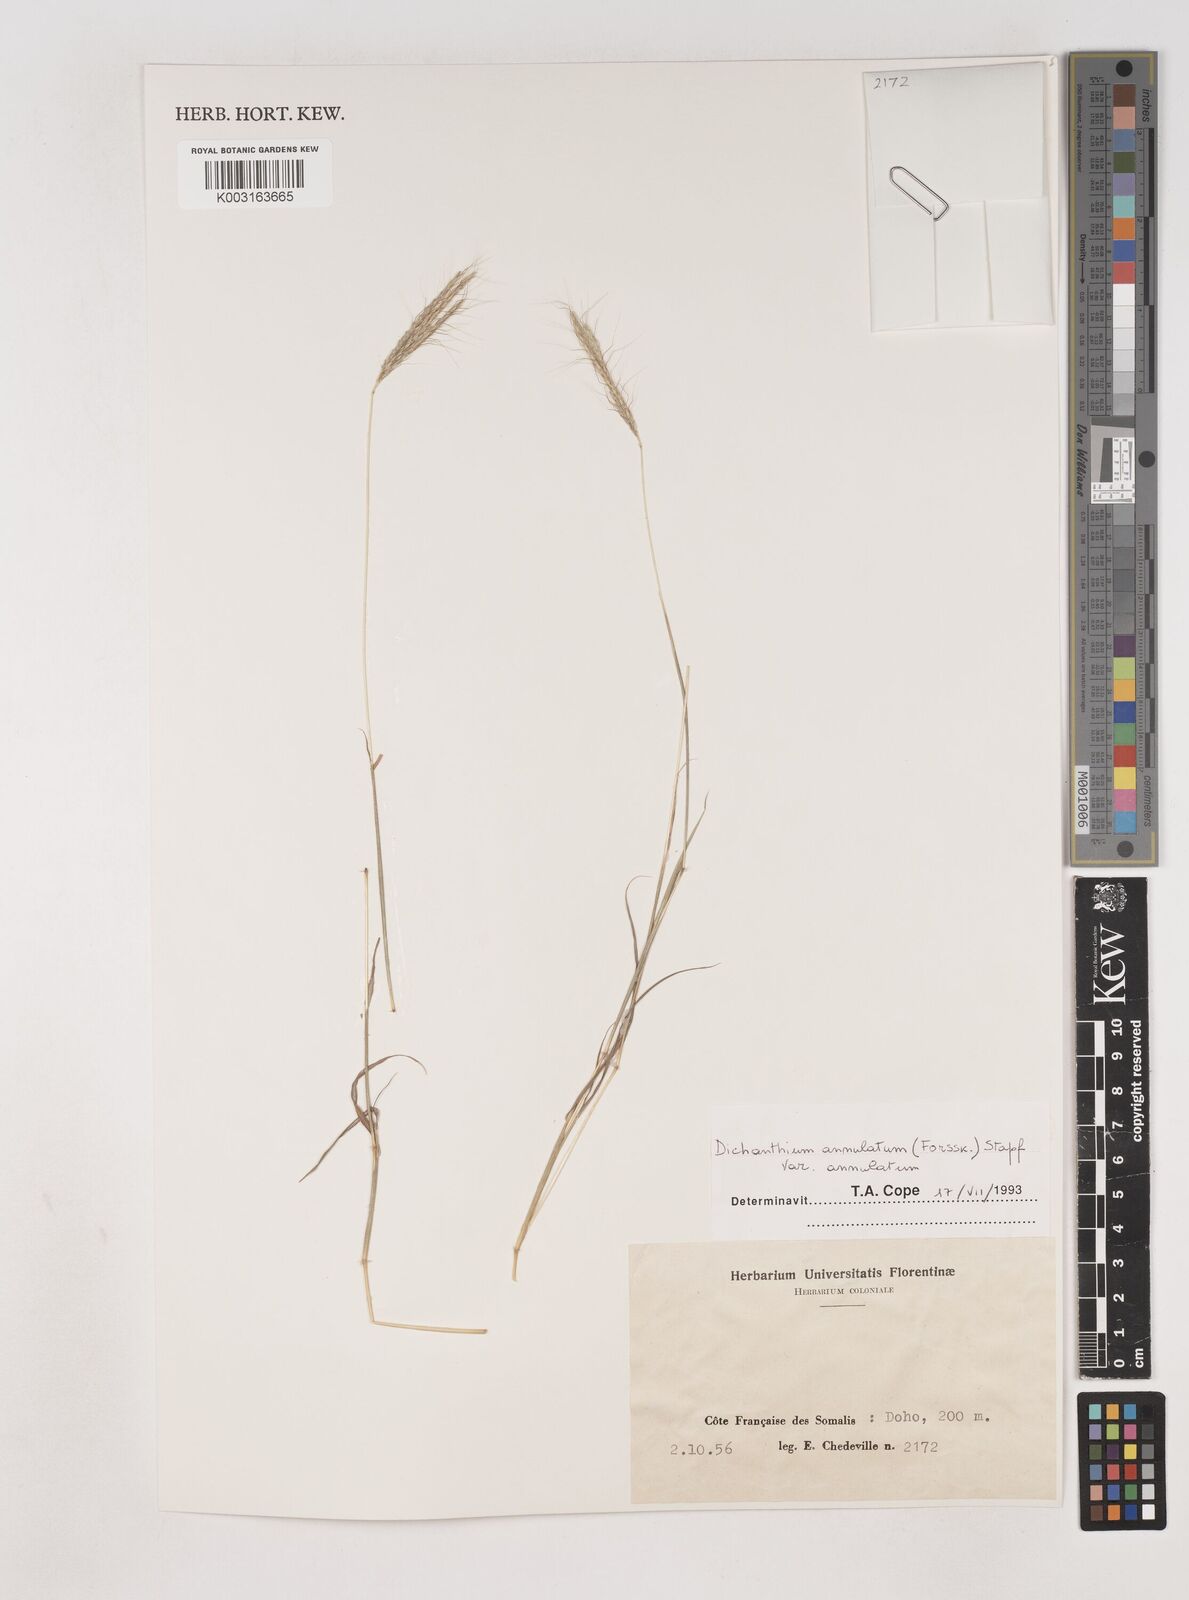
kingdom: Plantae
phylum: Tracheophyta
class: Liliopsida
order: Poales
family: Poaceae
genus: Dichanthium
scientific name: Dichanthium annulatum
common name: Kleberg's bluestem
